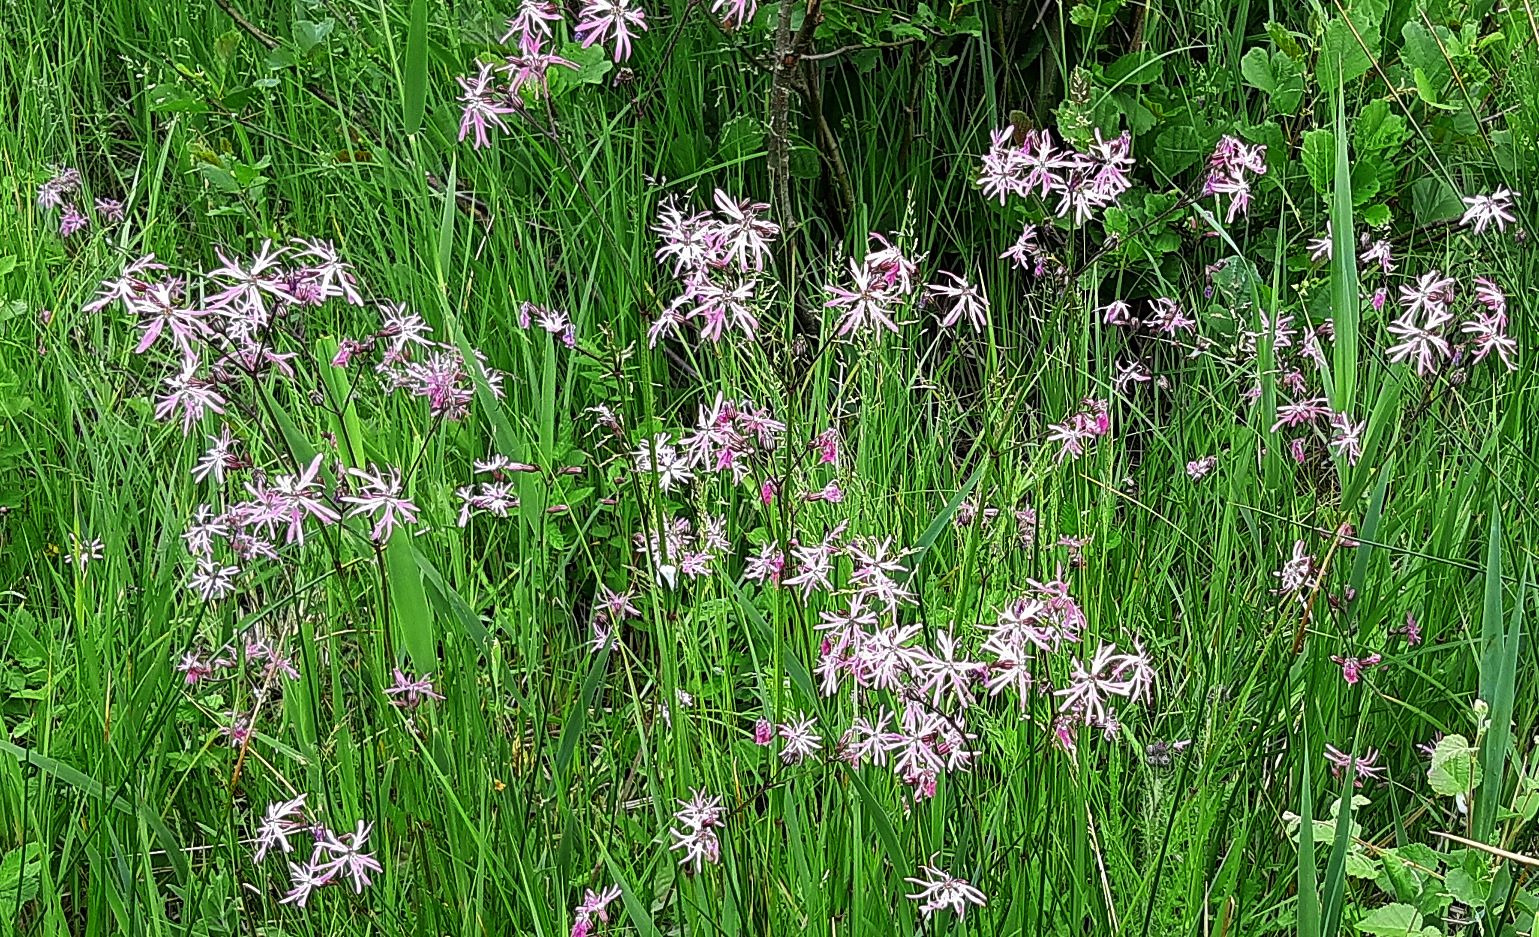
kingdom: Plantae
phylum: Tracheophyta
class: Magnoliopsida
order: Caryophyllales
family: Caryophyllaceae
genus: Silene
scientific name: Silene flos-cuculi
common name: Trævlekrone
